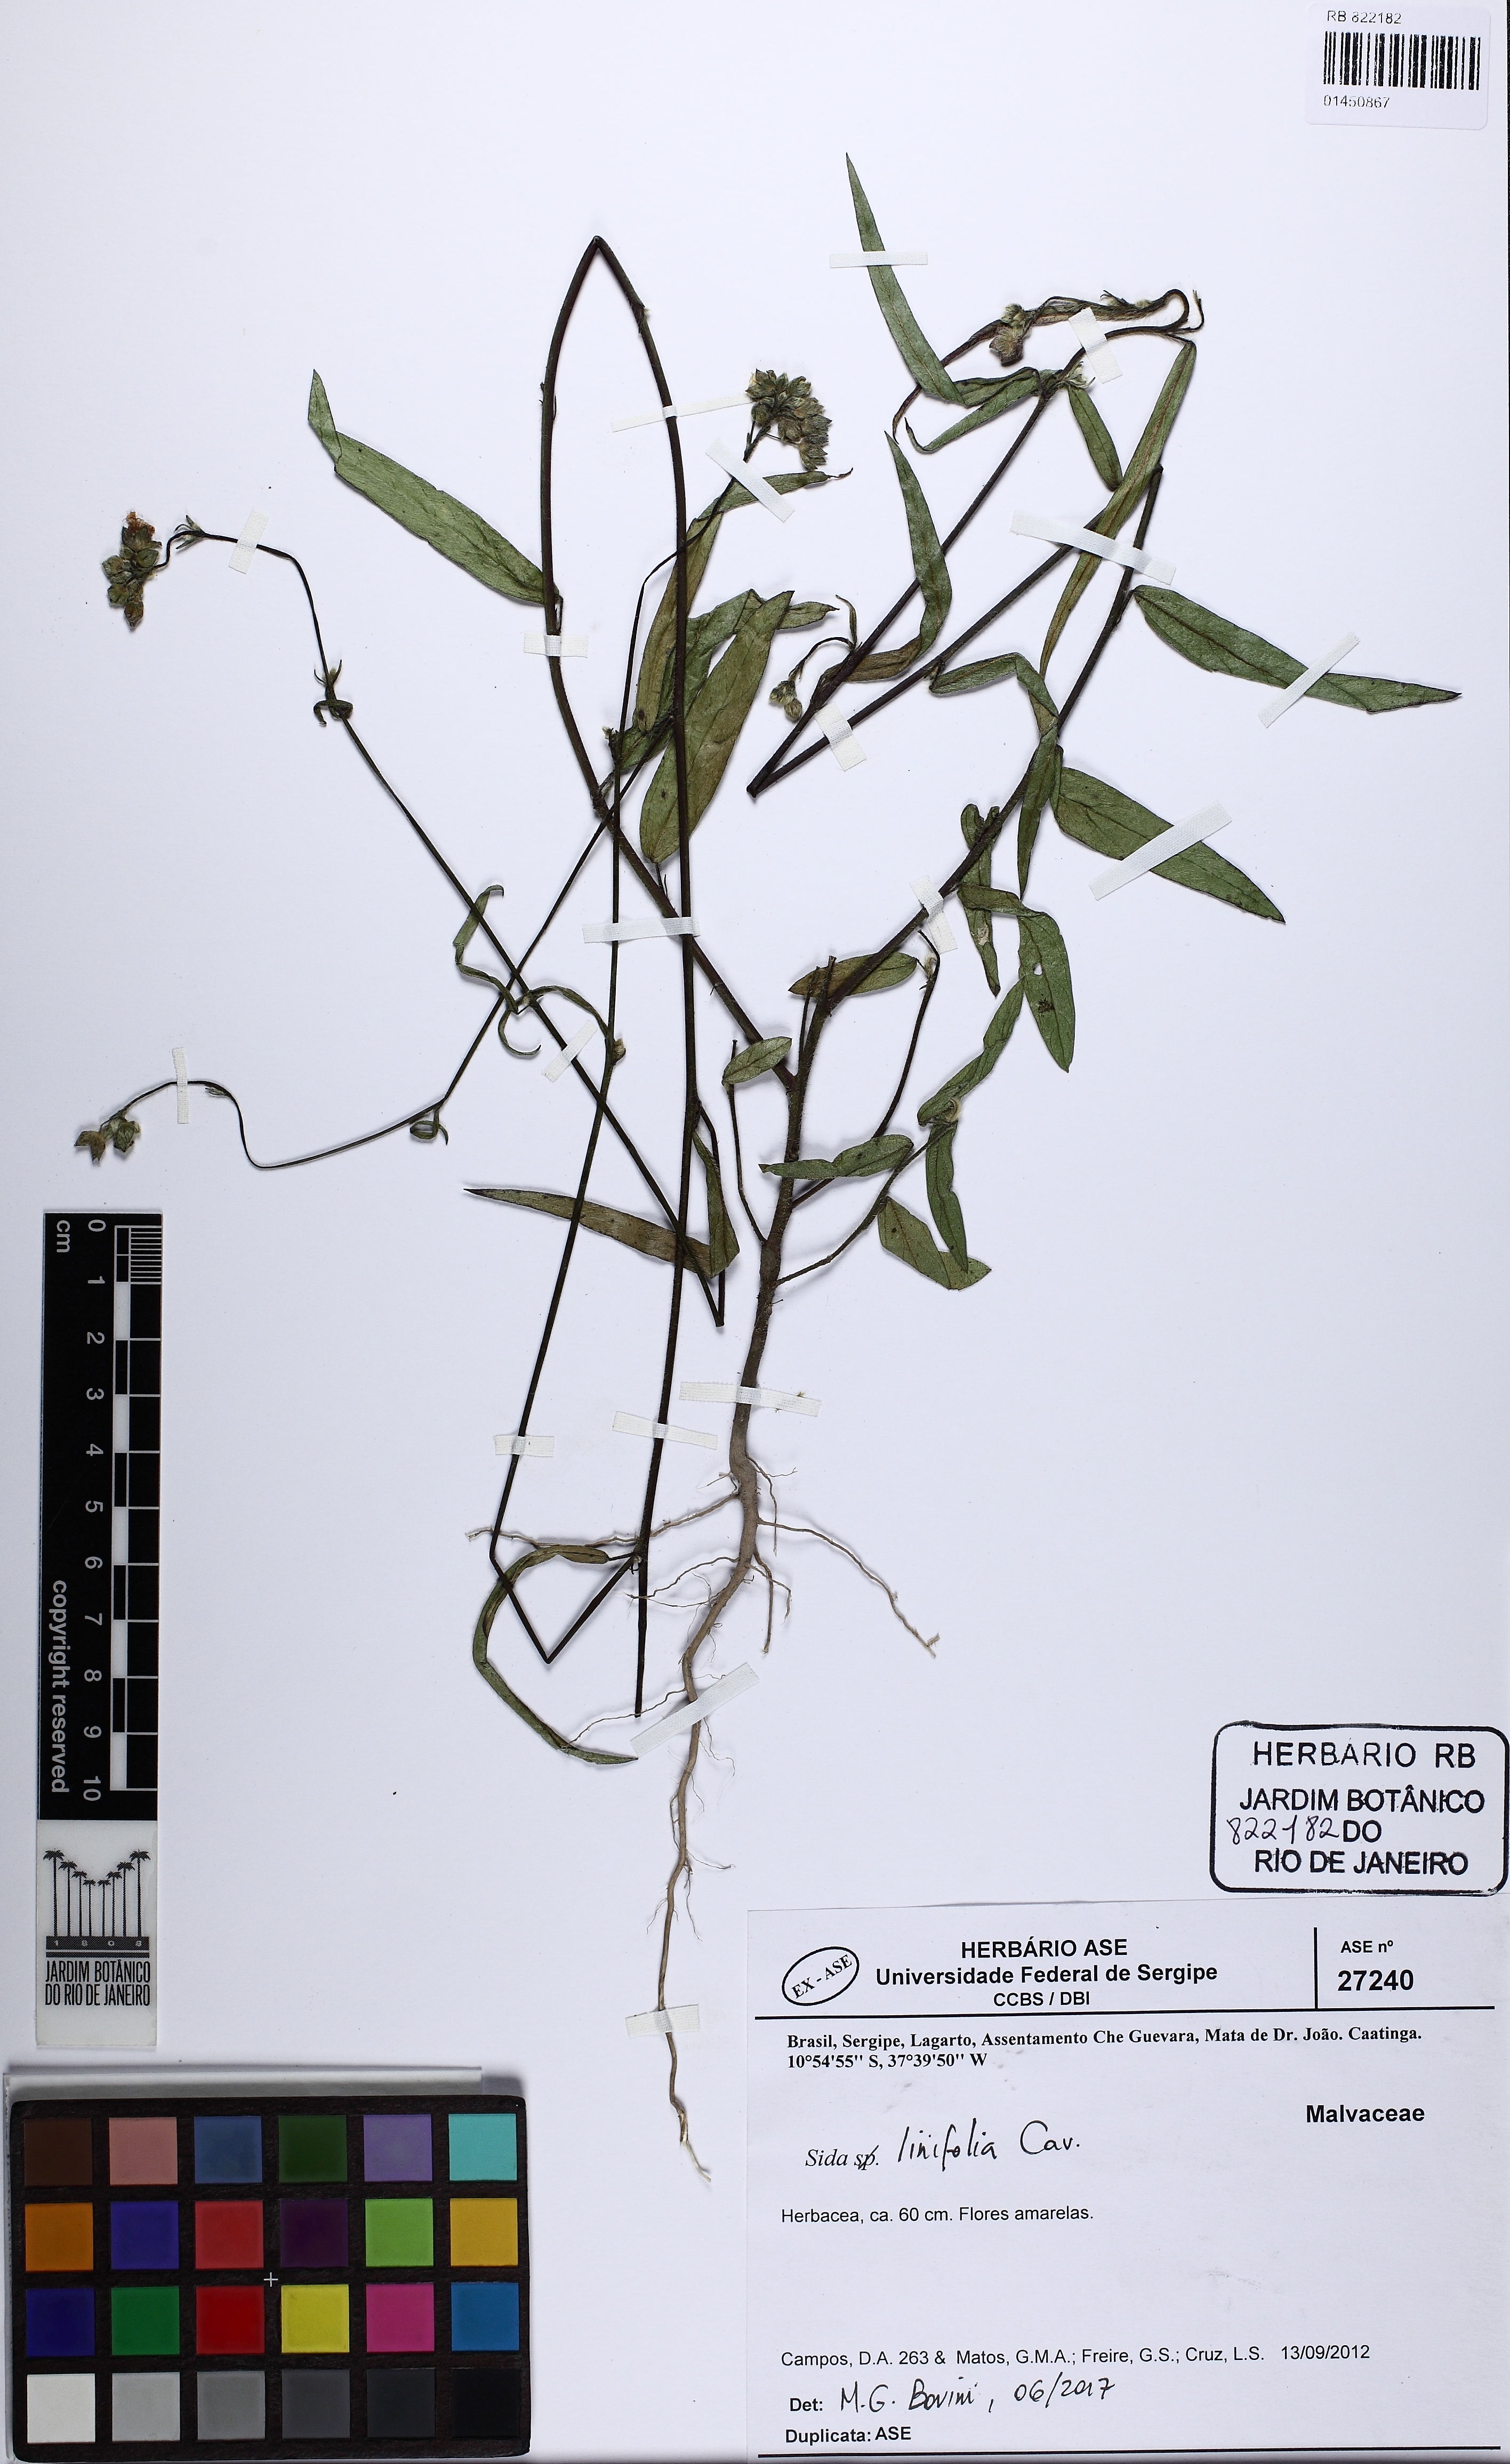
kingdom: Plantae
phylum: Tracheophyta
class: Magnoliopsida
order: Malvales
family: Malvaceae
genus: Sida
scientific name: Sida linifolia
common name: Flaxleaf fanpetals
